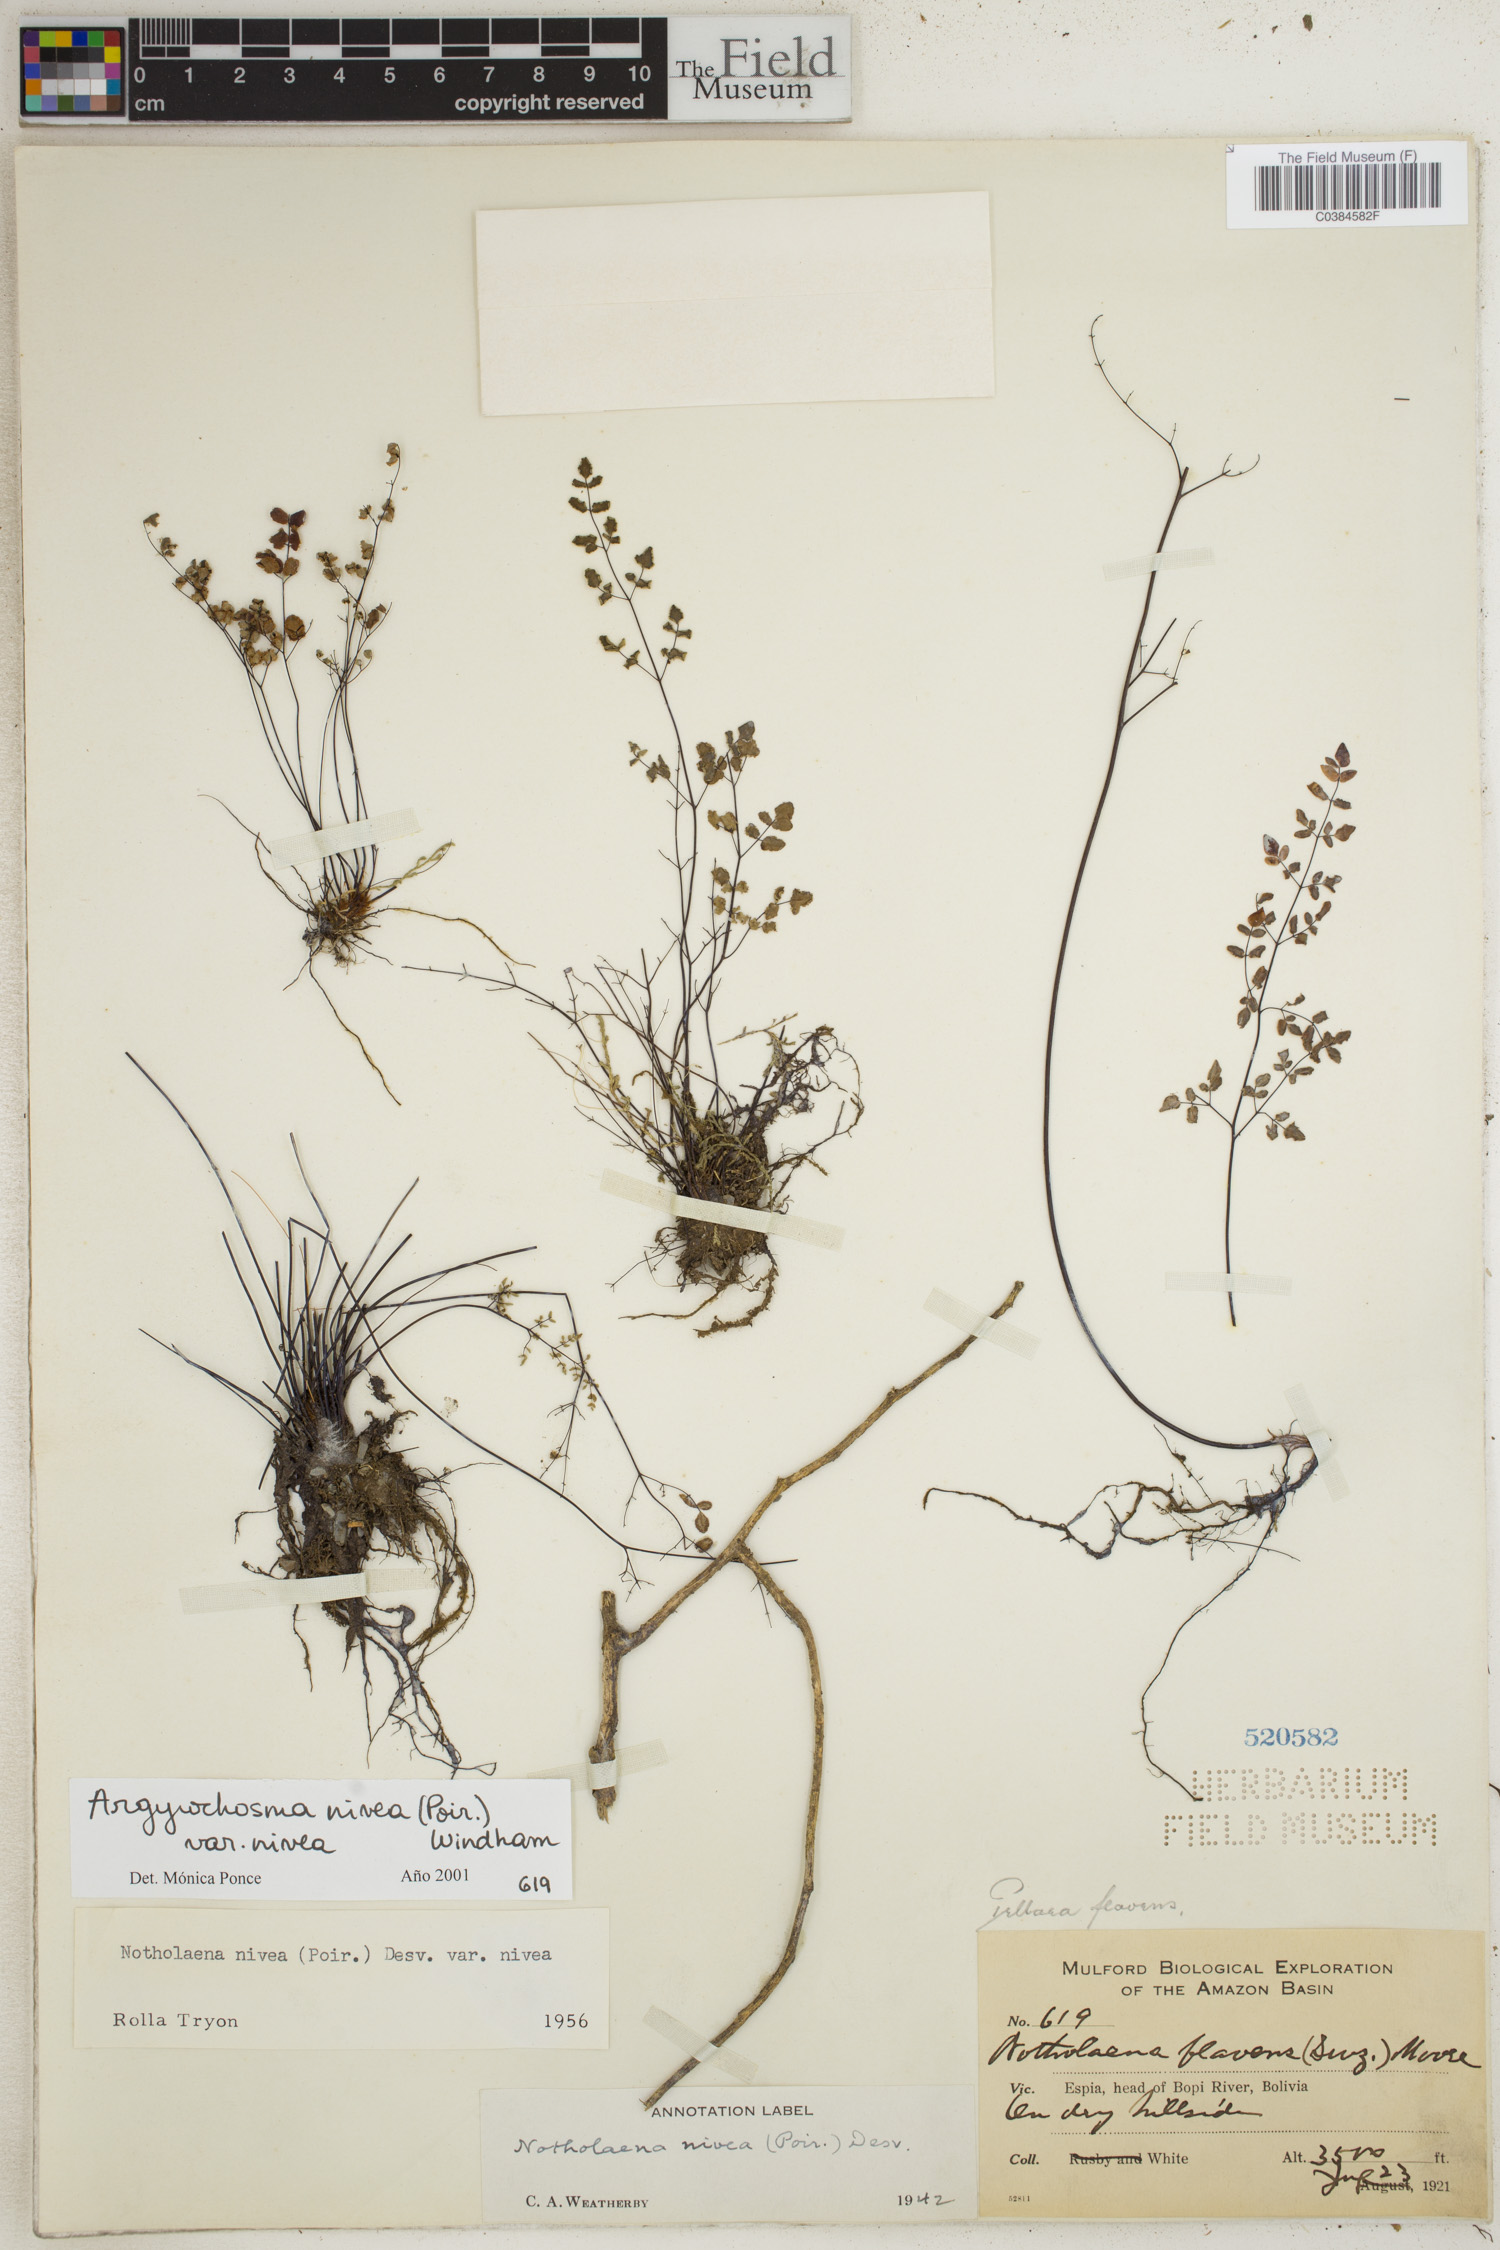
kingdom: Plantae
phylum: Tracheophyta
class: Polypodiopsida
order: Polypodiales
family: Pteridaceae
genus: Argyrochosma
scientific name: Argyrochosma nivea
